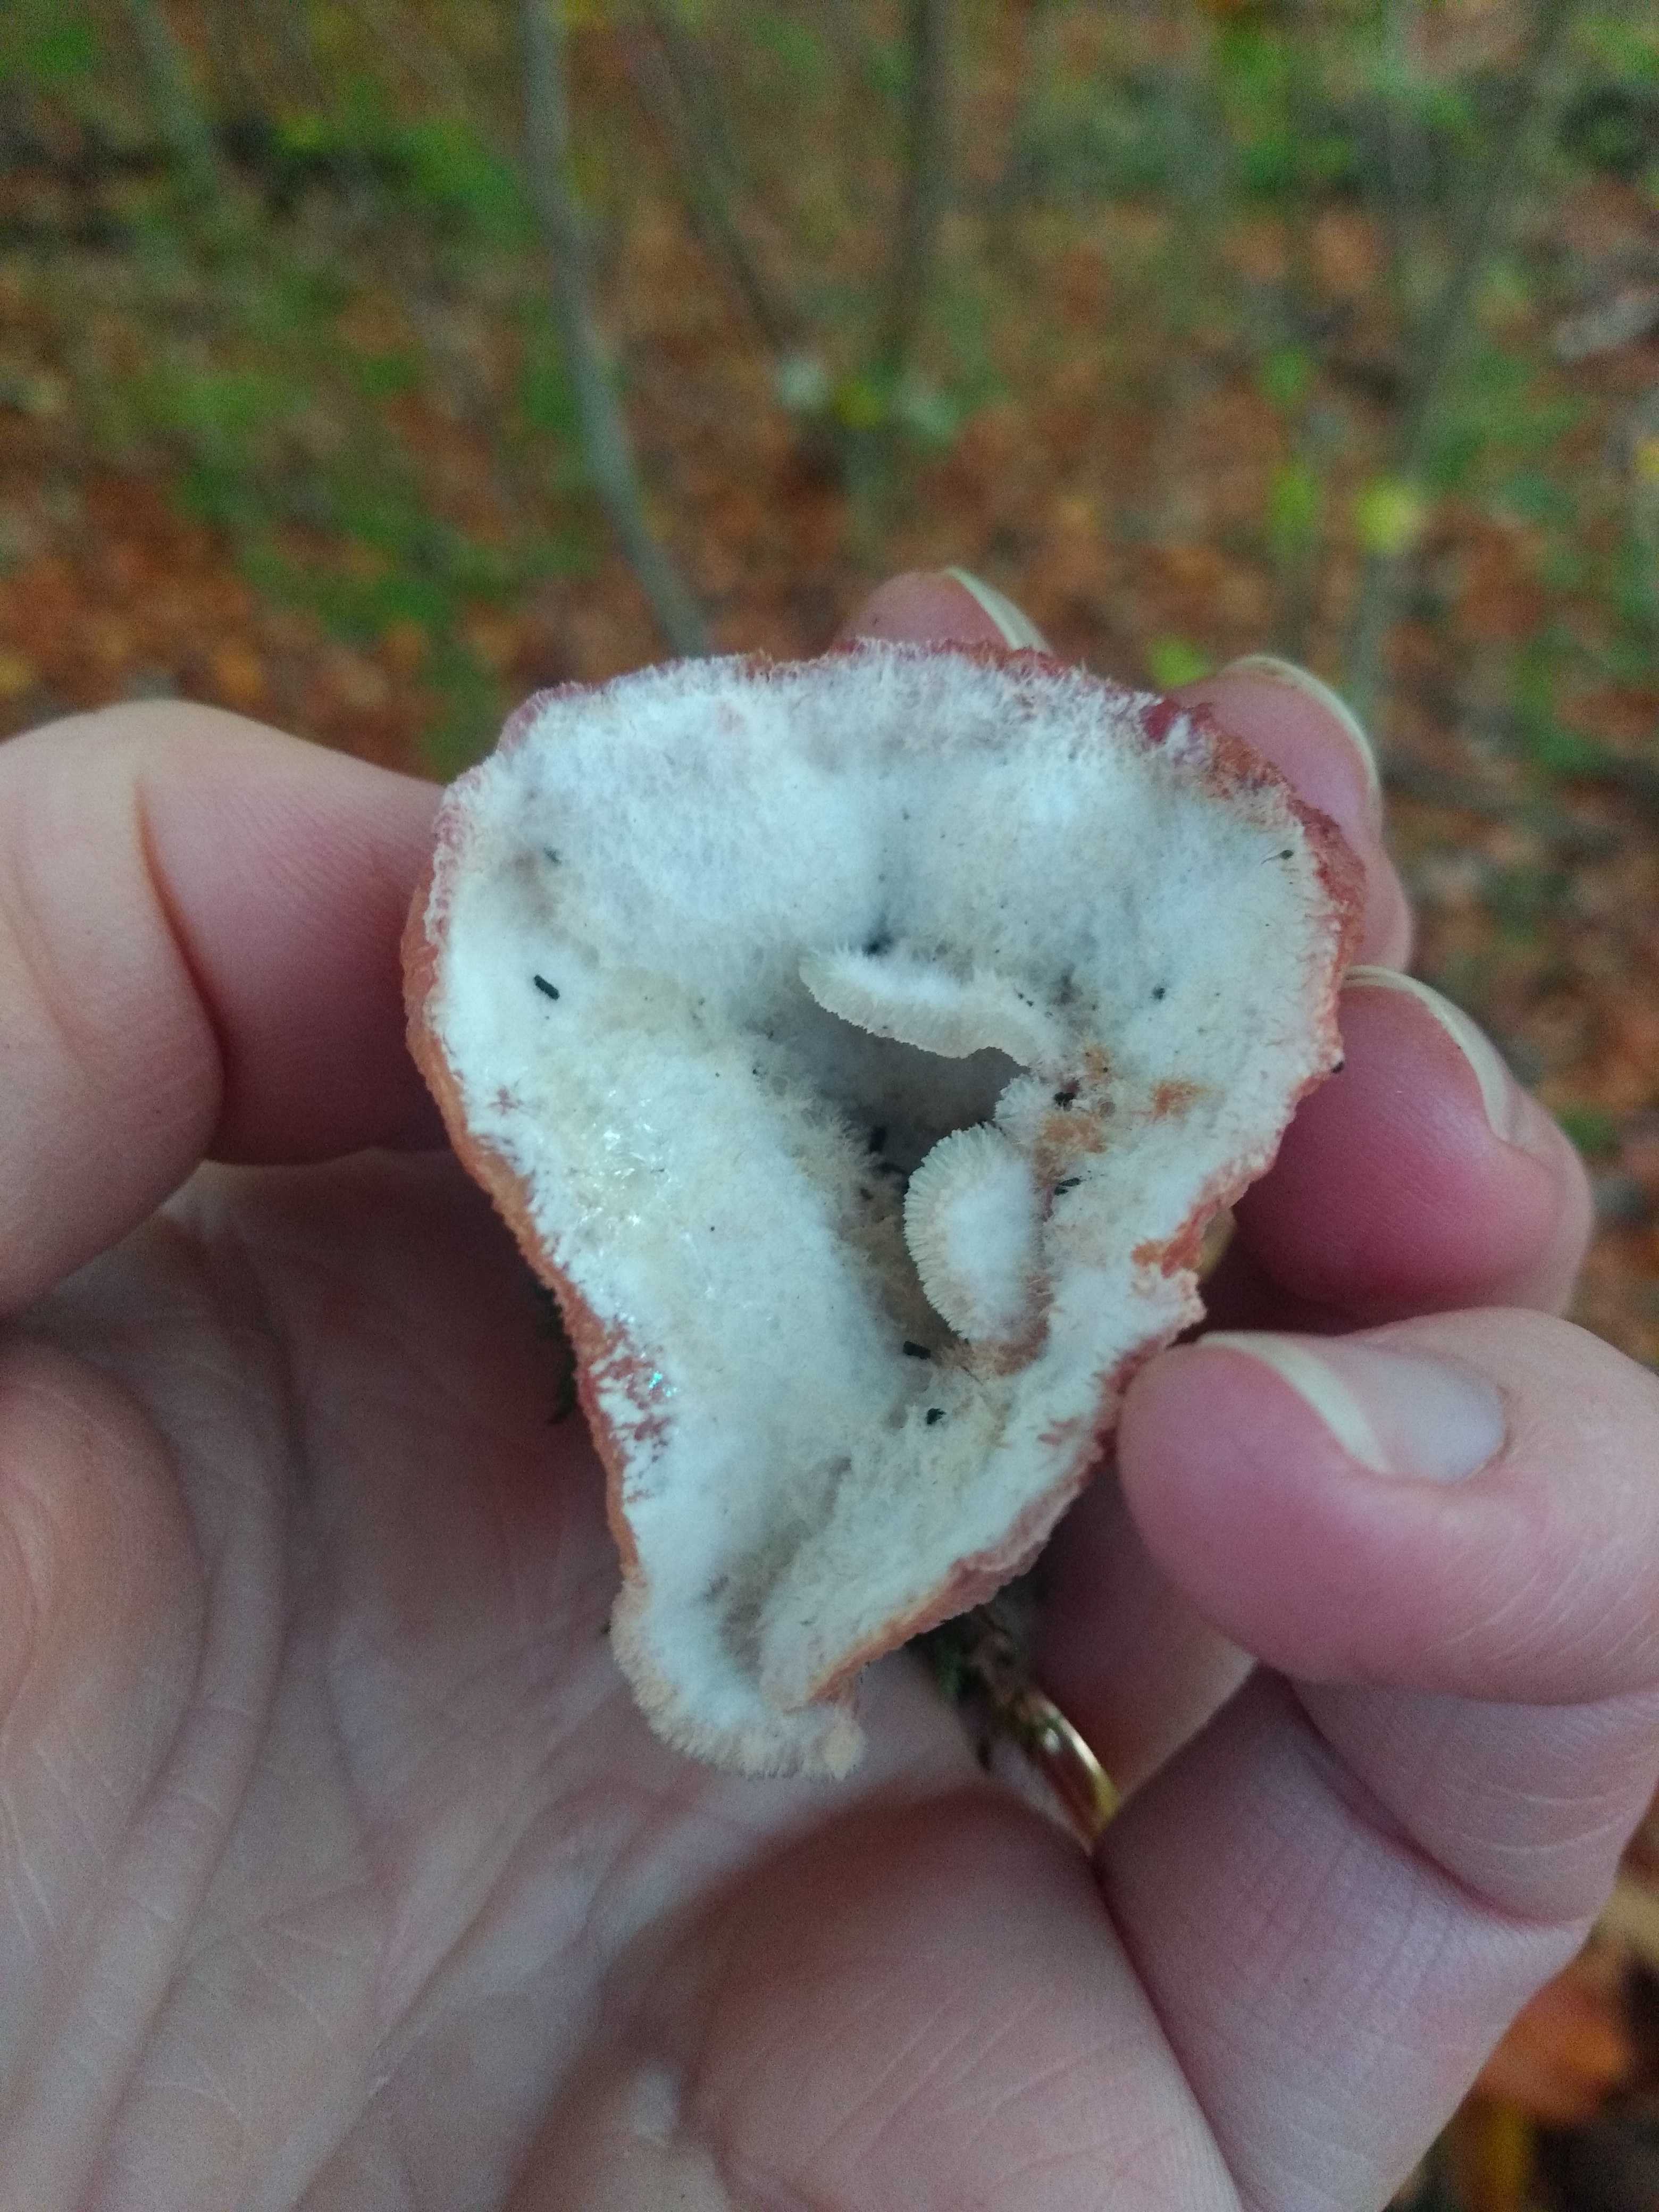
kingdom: Fungi
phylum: Basidiomycota
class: Agaricomycetes
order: Polyporales
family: Meruliaceae
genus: Phlebia
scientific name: Phlebia tremellosa
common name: bævrende åresvamp
